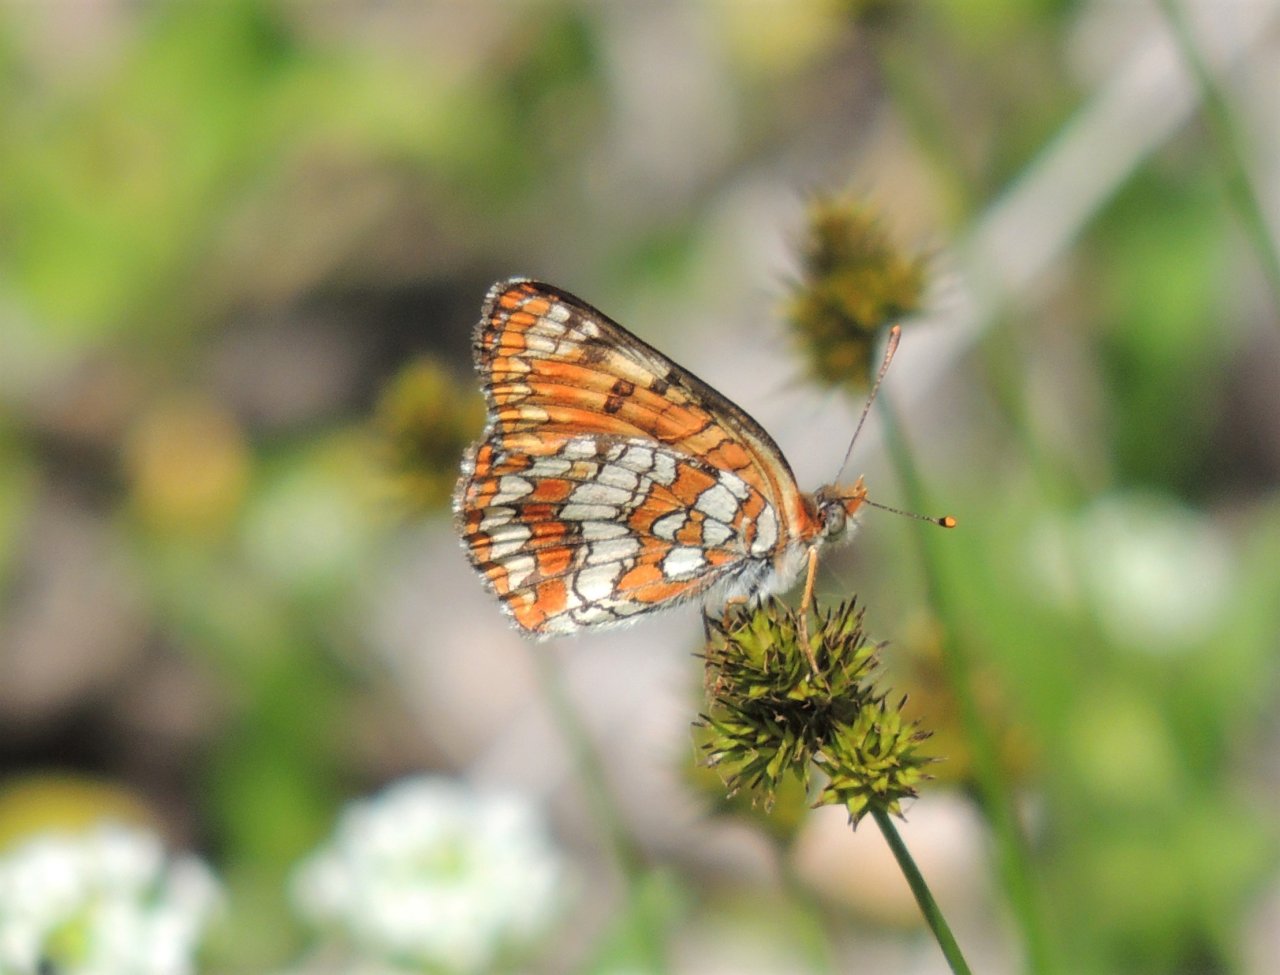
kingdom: Animalia
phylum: Arthropoda
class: Insecta
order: Lepidoptera
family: Nymphalidae
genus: Chlosyne
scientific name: Chlosyne palla
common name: Northern Checkerspot
